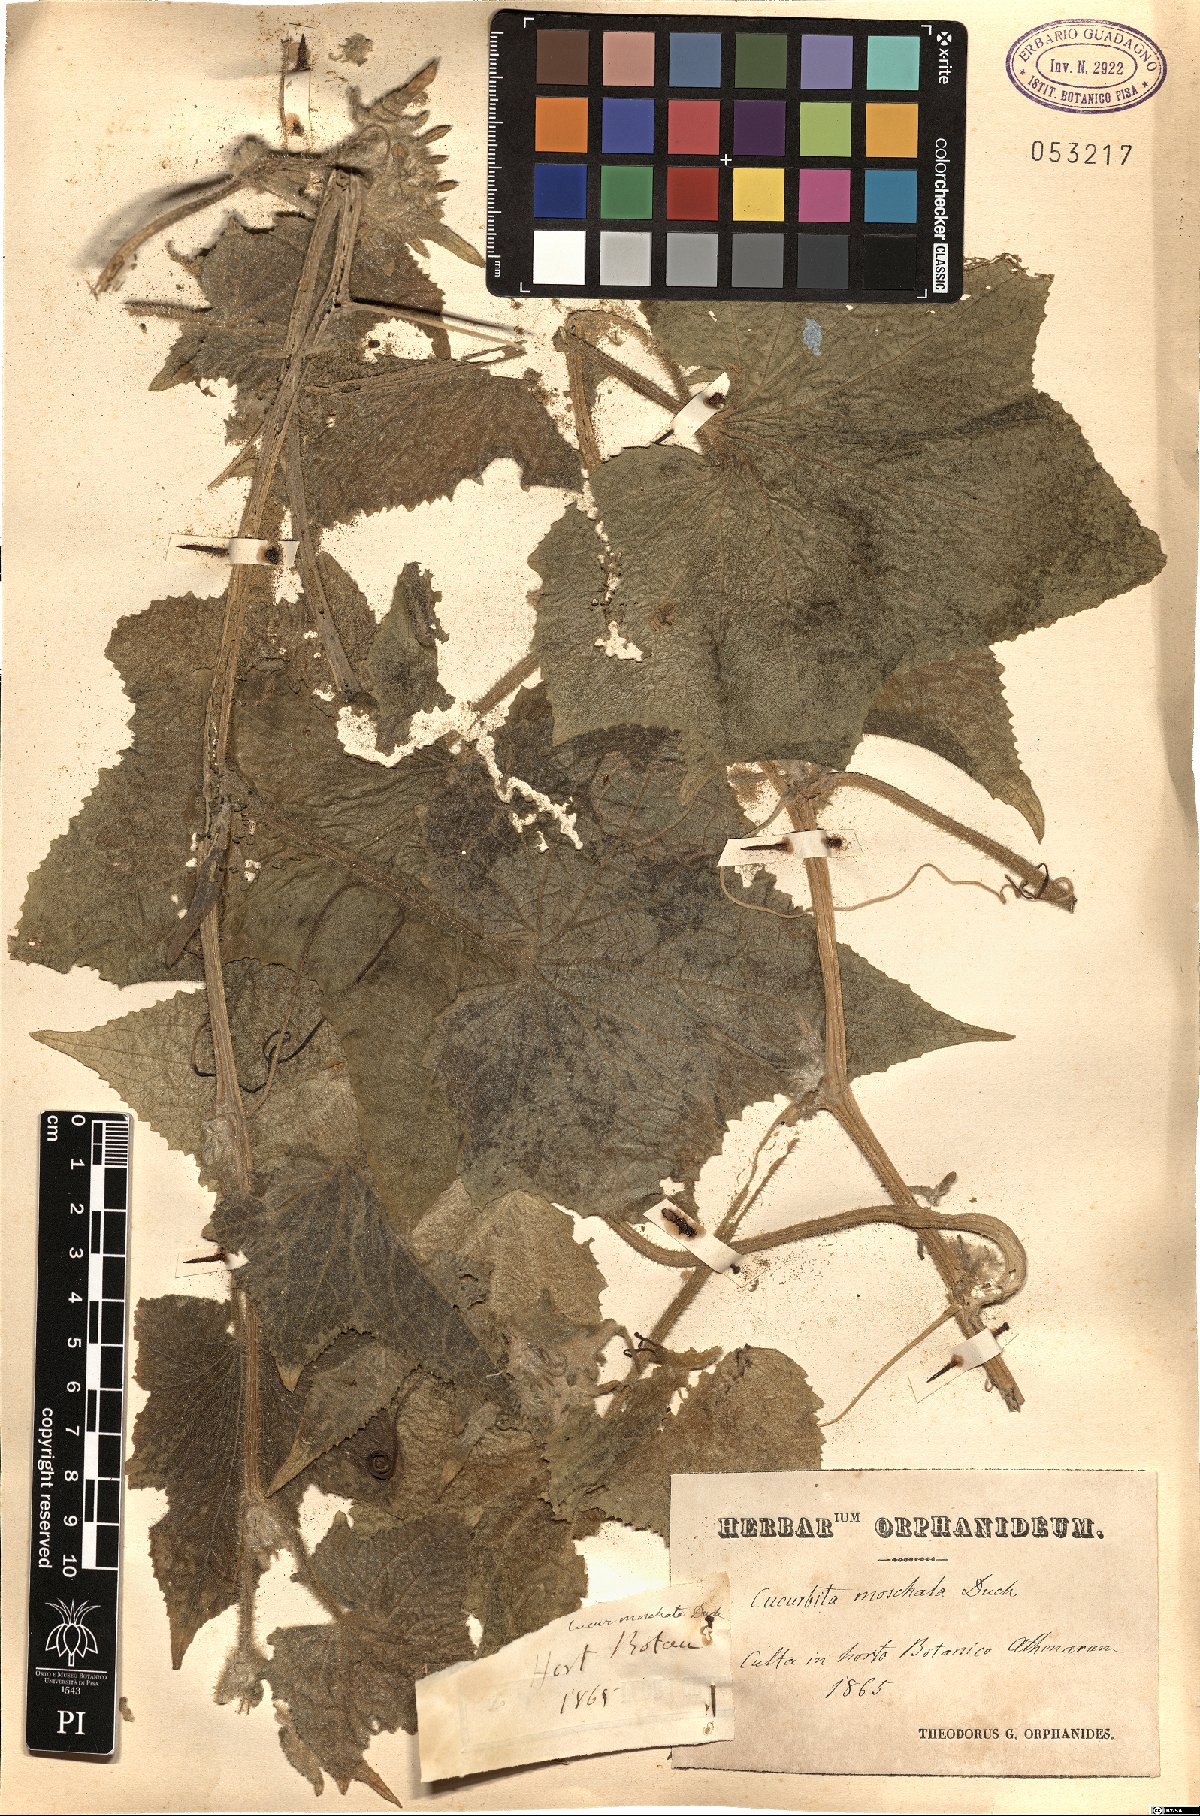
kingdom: Plantae
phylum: Tracheophyta
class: Magnoliopsida
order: Cucurbitales
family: Cucurbitaceae
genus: Cucurbita
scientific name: Cucurbita moschata
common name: Squash / pumpkin
